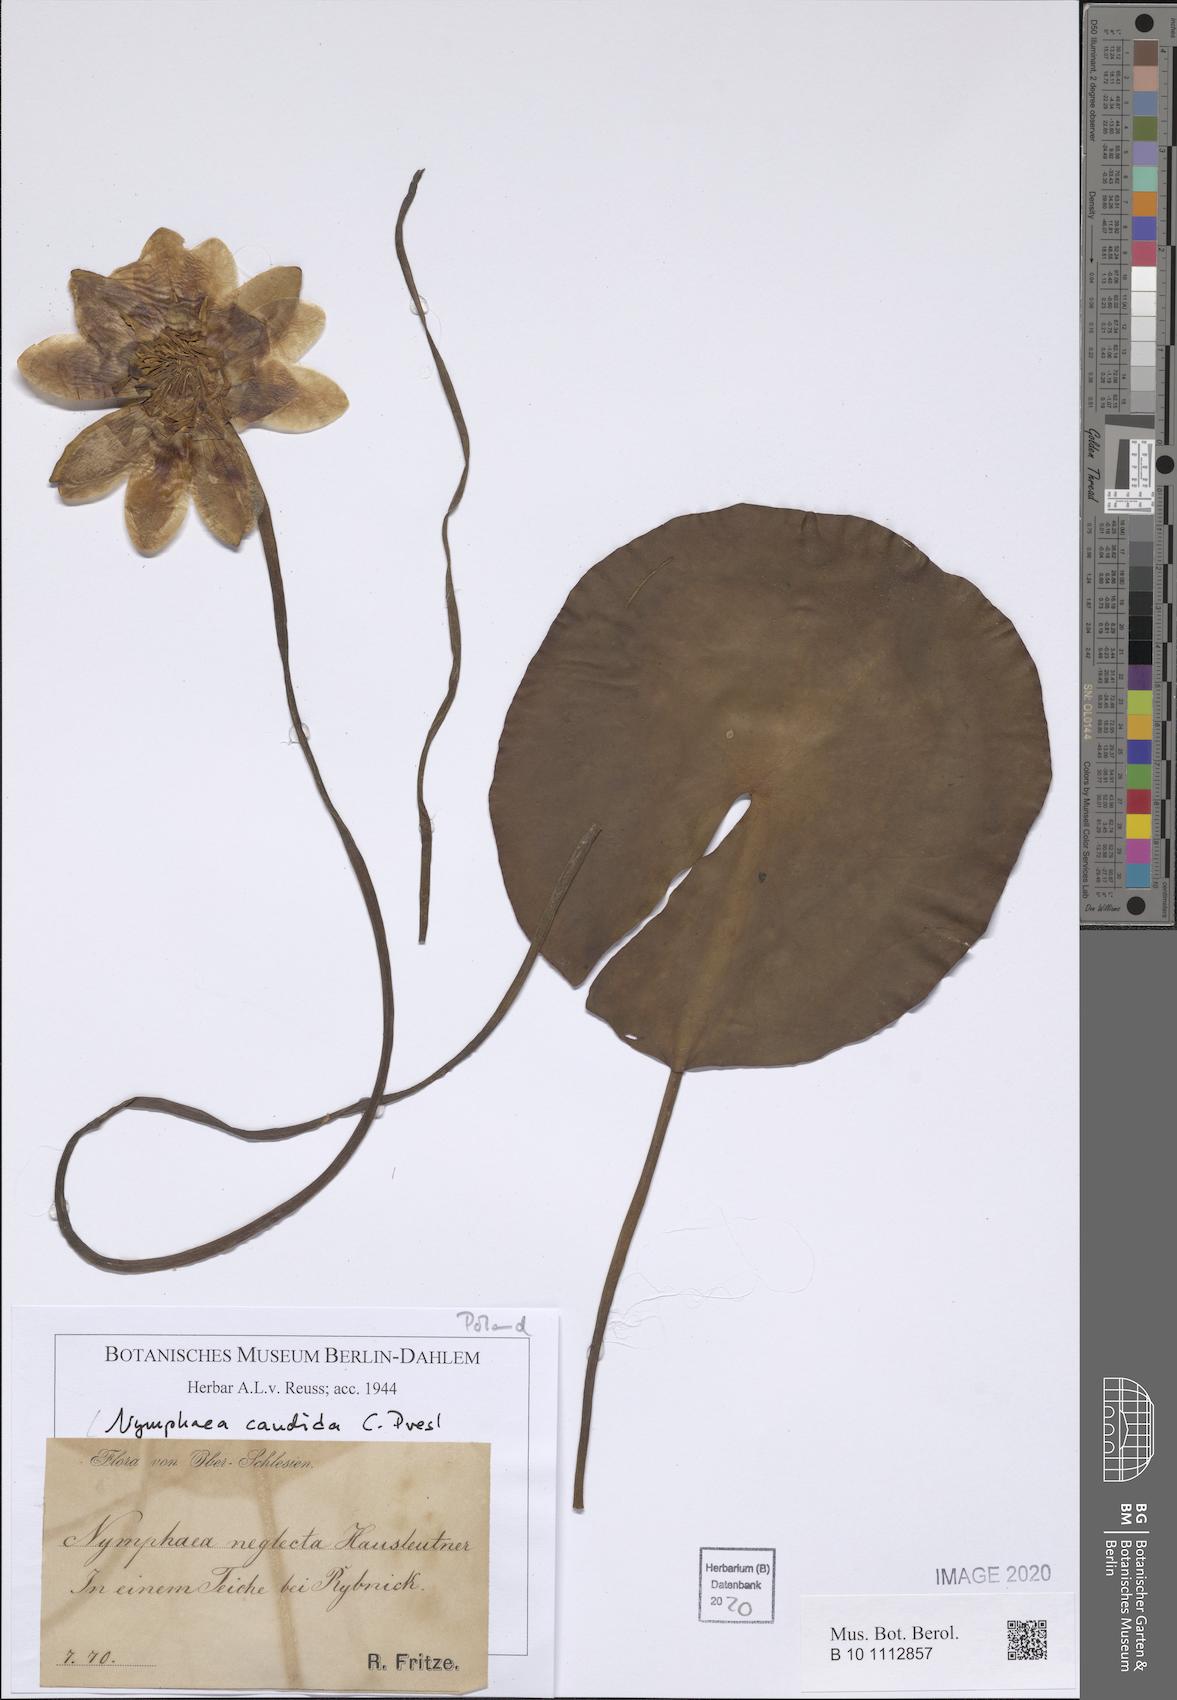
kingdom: Plantae
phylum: Tracheophyta
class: Magnoliopsida
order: Nymphaeales
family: Nymphaeaceae
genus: Nymphaea
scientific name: Nymphaea candida
